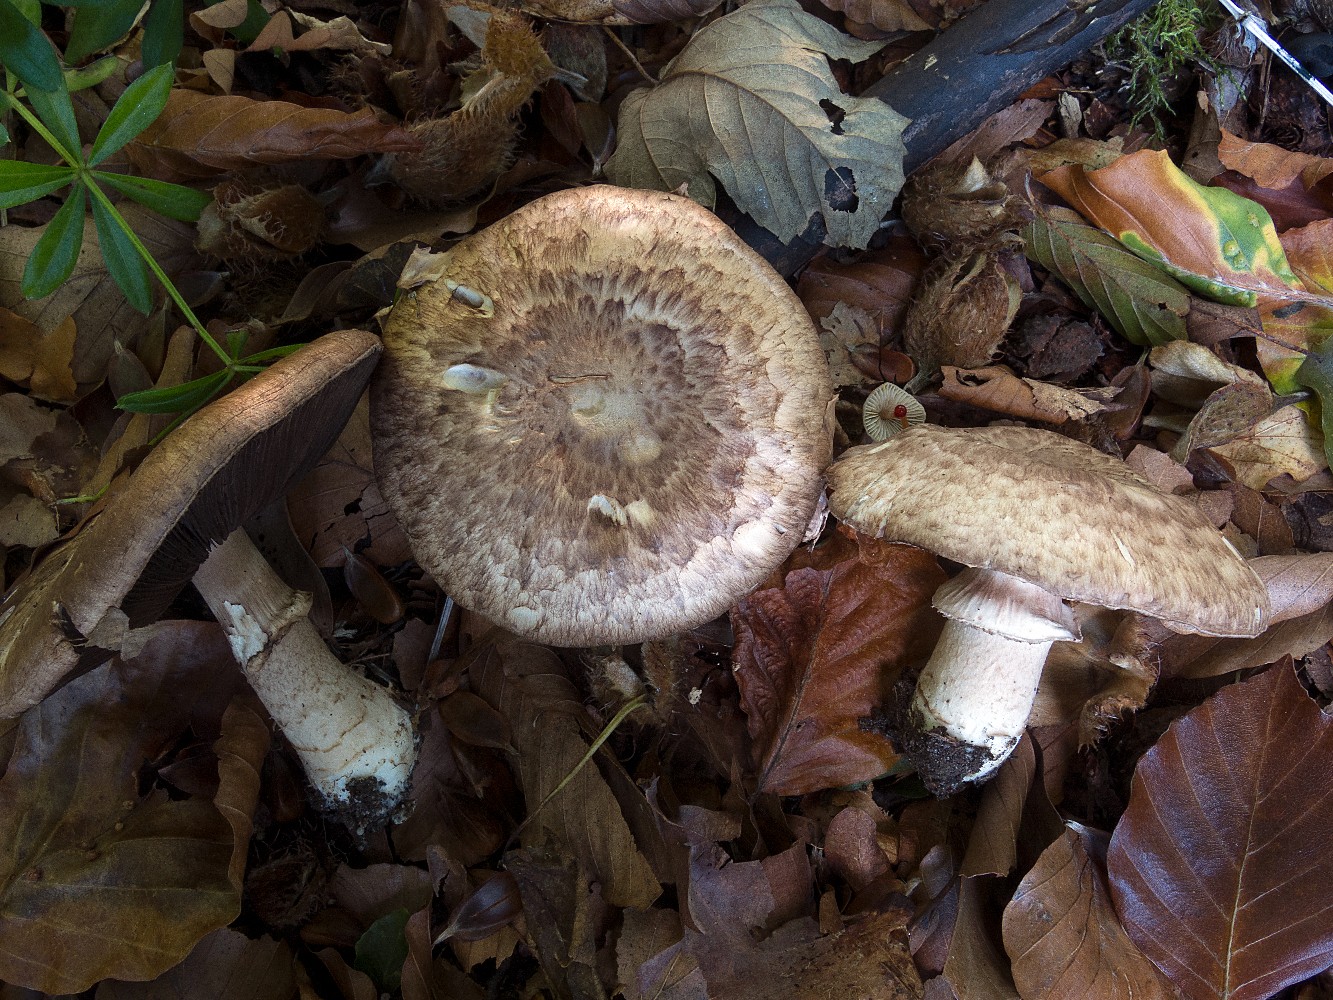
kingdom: Fungi
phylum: Basidiomycota
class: Agaricomycetes
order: Agaricales
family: Agaricaceae
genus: Agaricus
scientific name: Agaricus lanipes
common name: uldstokket champignon
